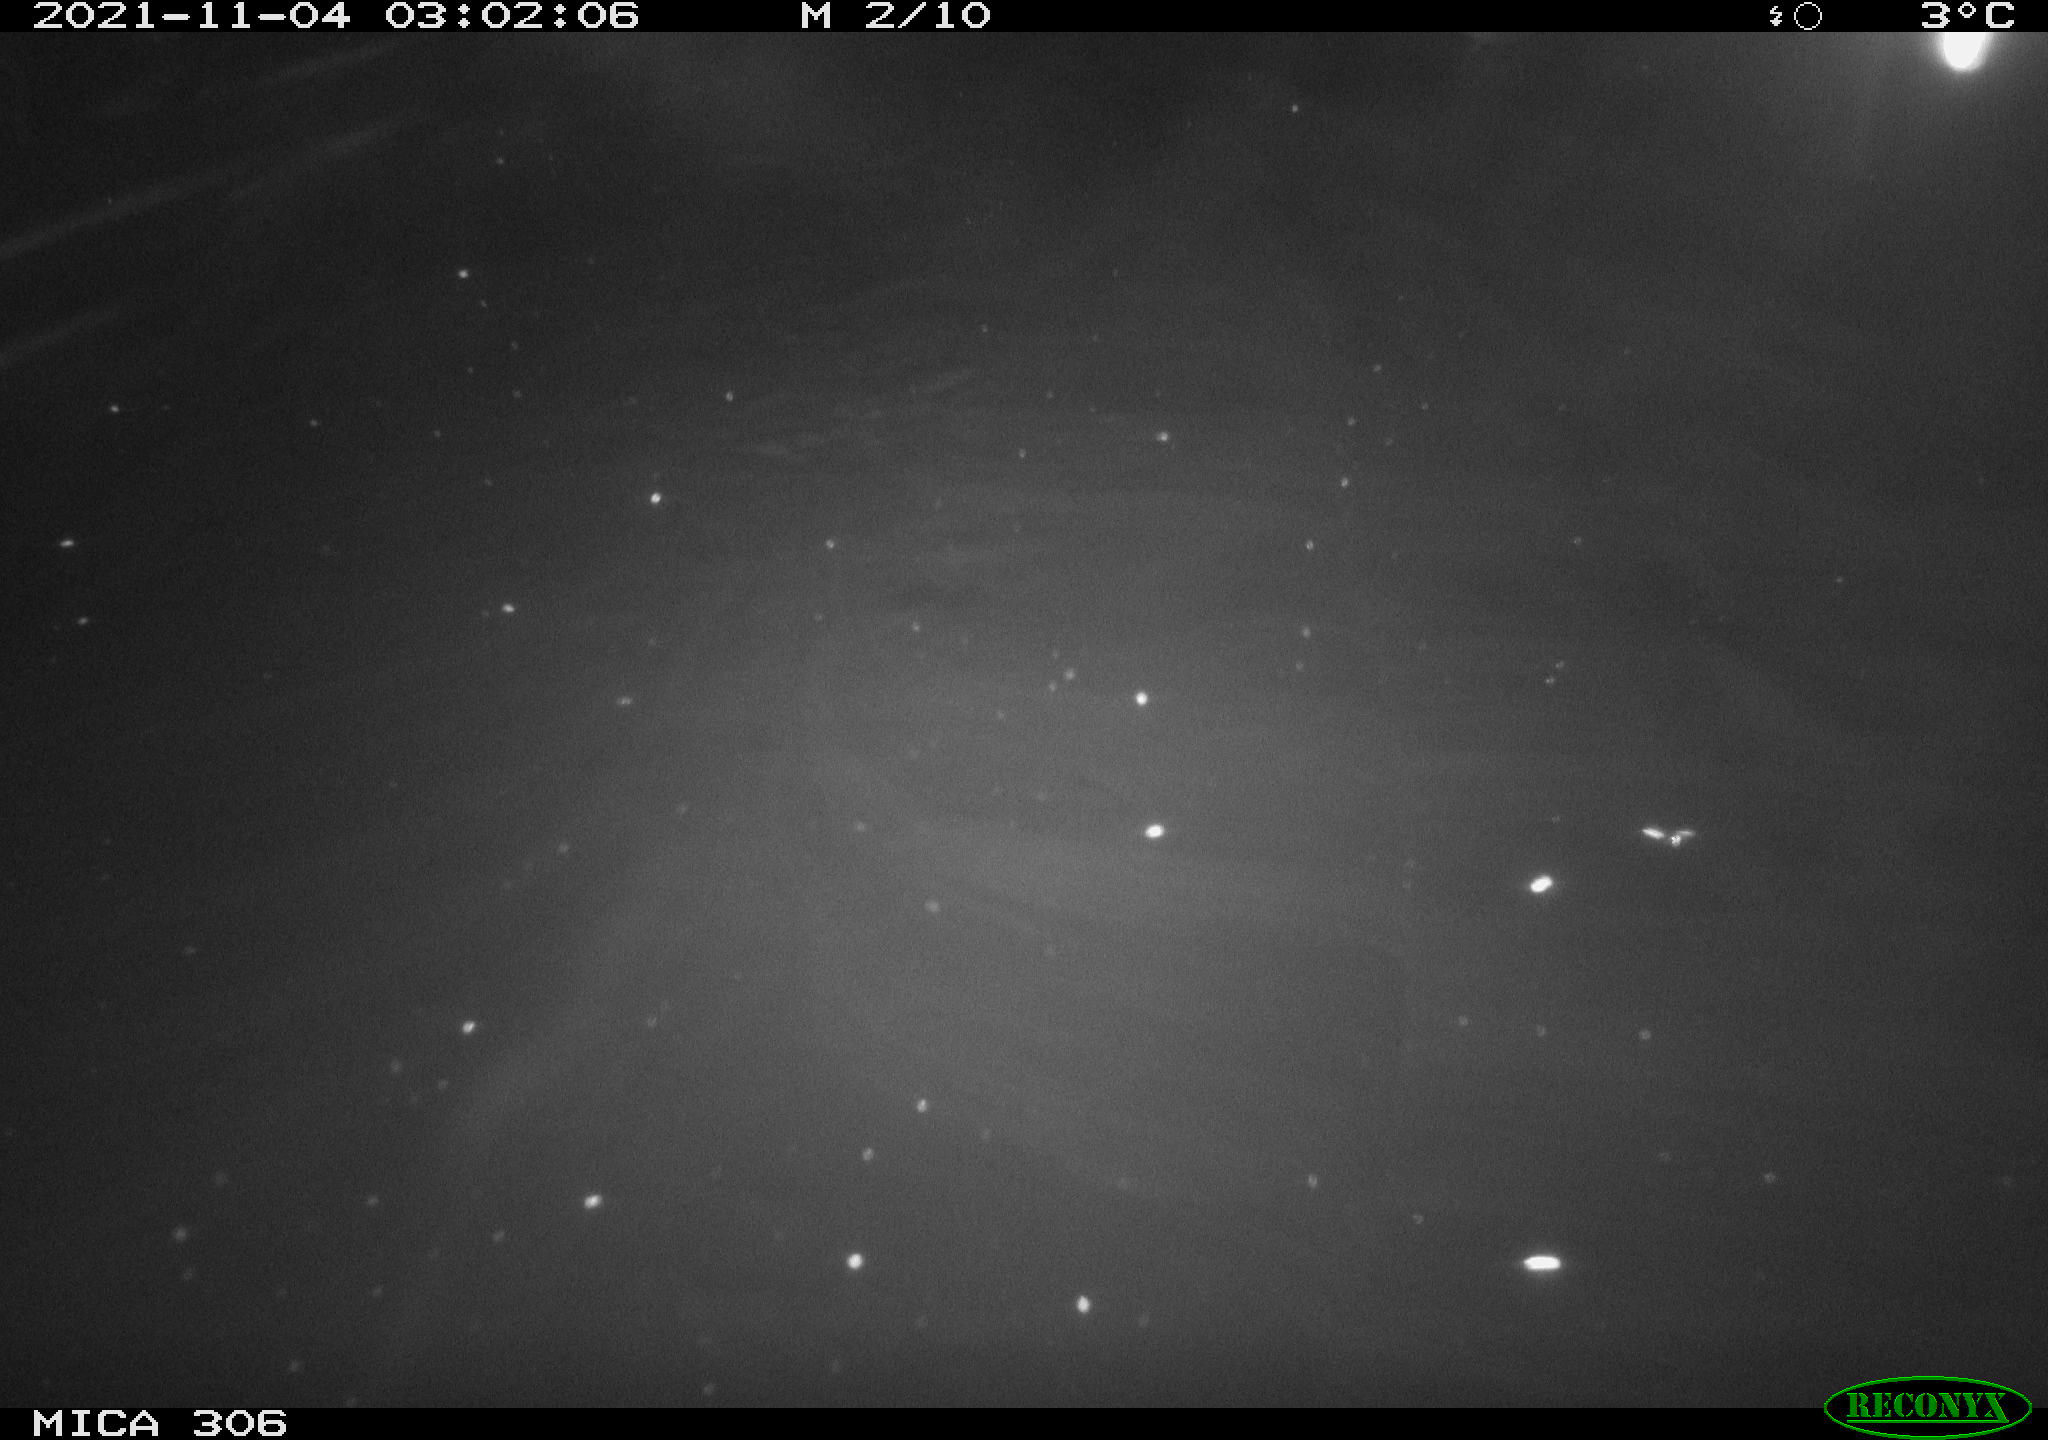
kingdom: Animalia
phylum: Chordata
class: Mammalia
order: Rodentia
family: Cricetidae
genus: Ondatra
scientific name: Ondatra zibethicus
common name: Muskrat
